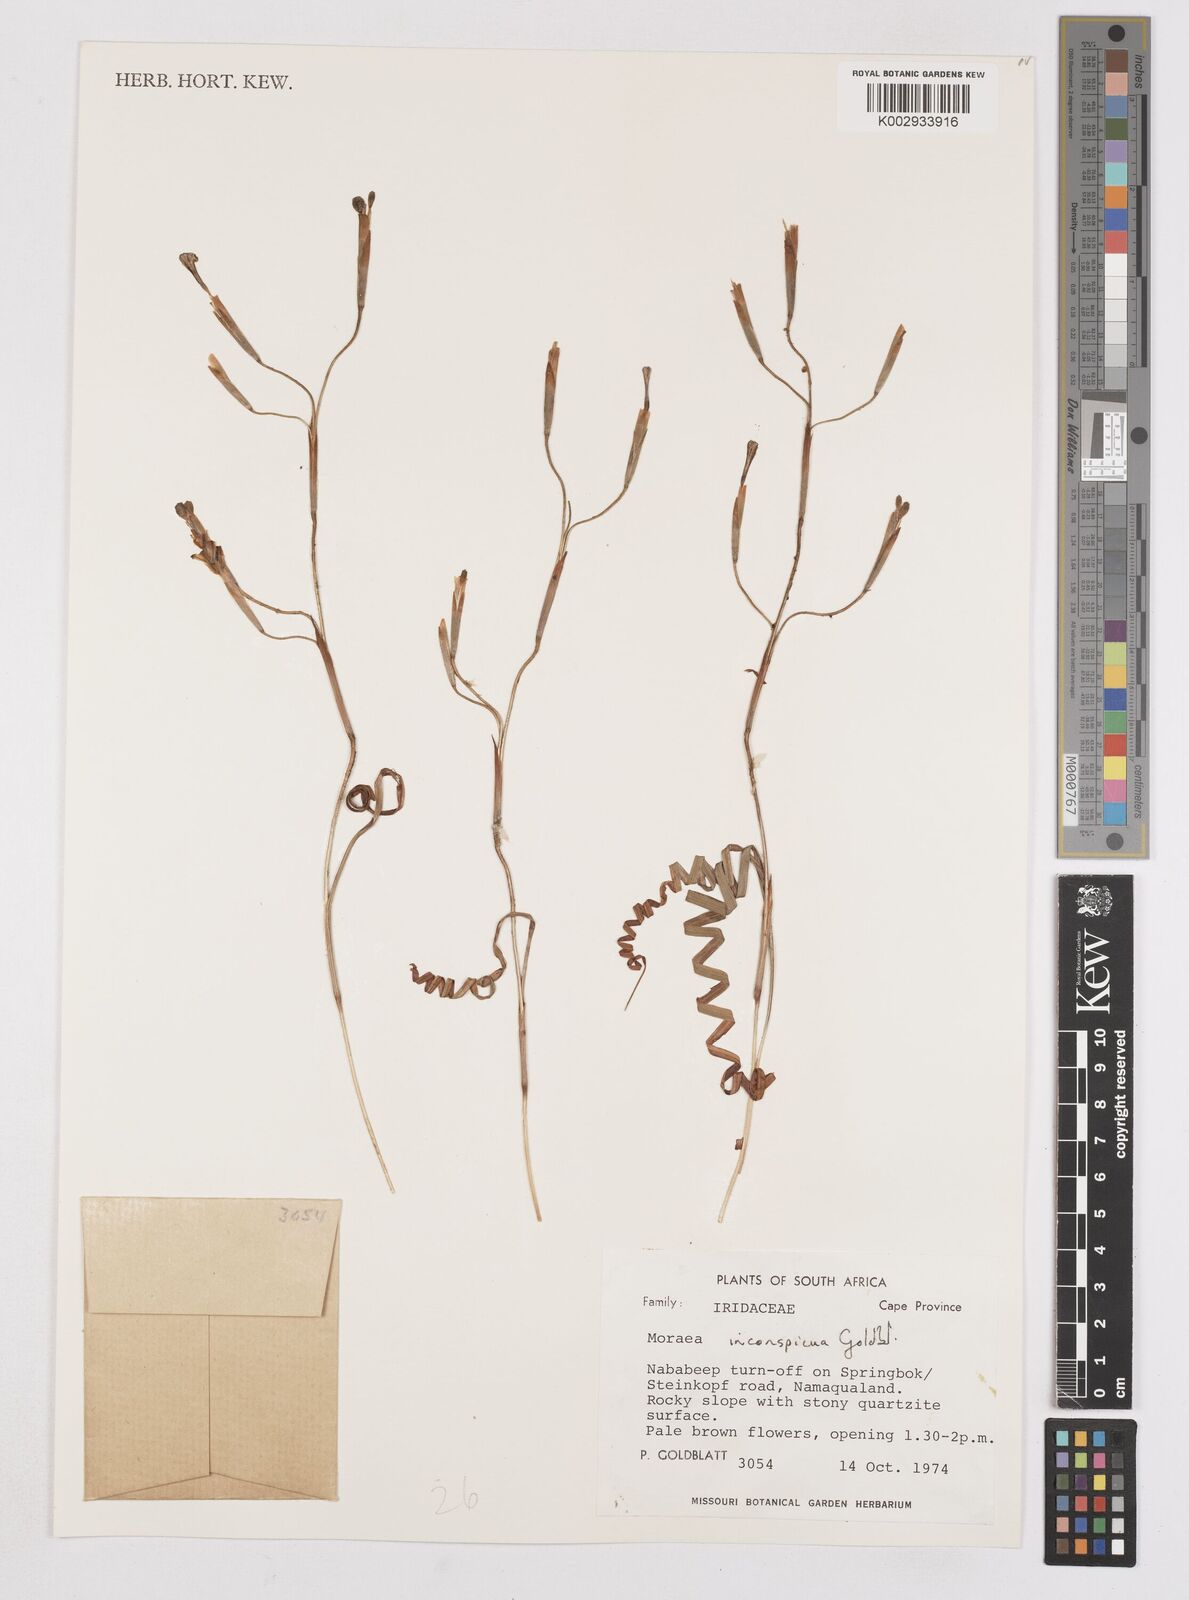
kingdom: Plantae
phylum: Tracheophyta
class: Liliopsida
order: Asparagales
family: Iridaceae
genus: Moraea
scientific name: Moraea inconspicua
